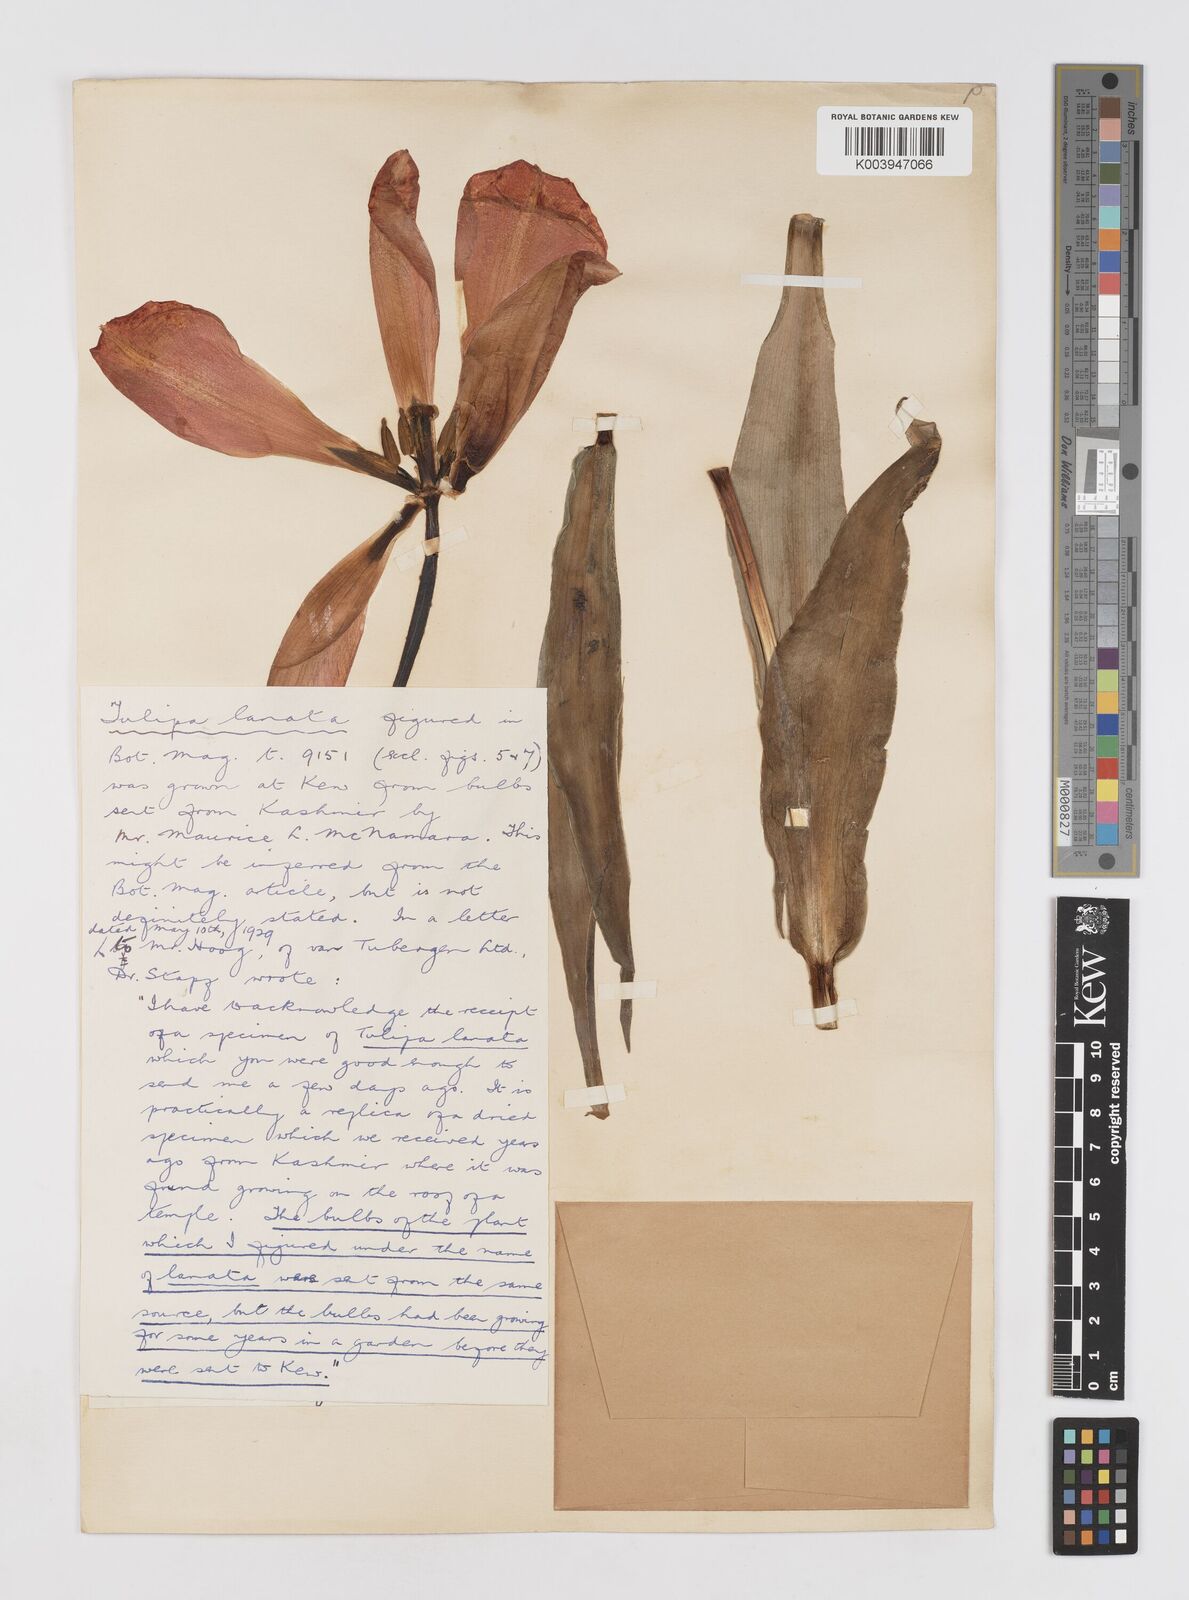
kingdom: Plantae
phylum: Tracheophyta
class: Liliopsida
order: Liliales
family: Liliaceae
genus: Tulipa
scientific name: Tulipa lanata
